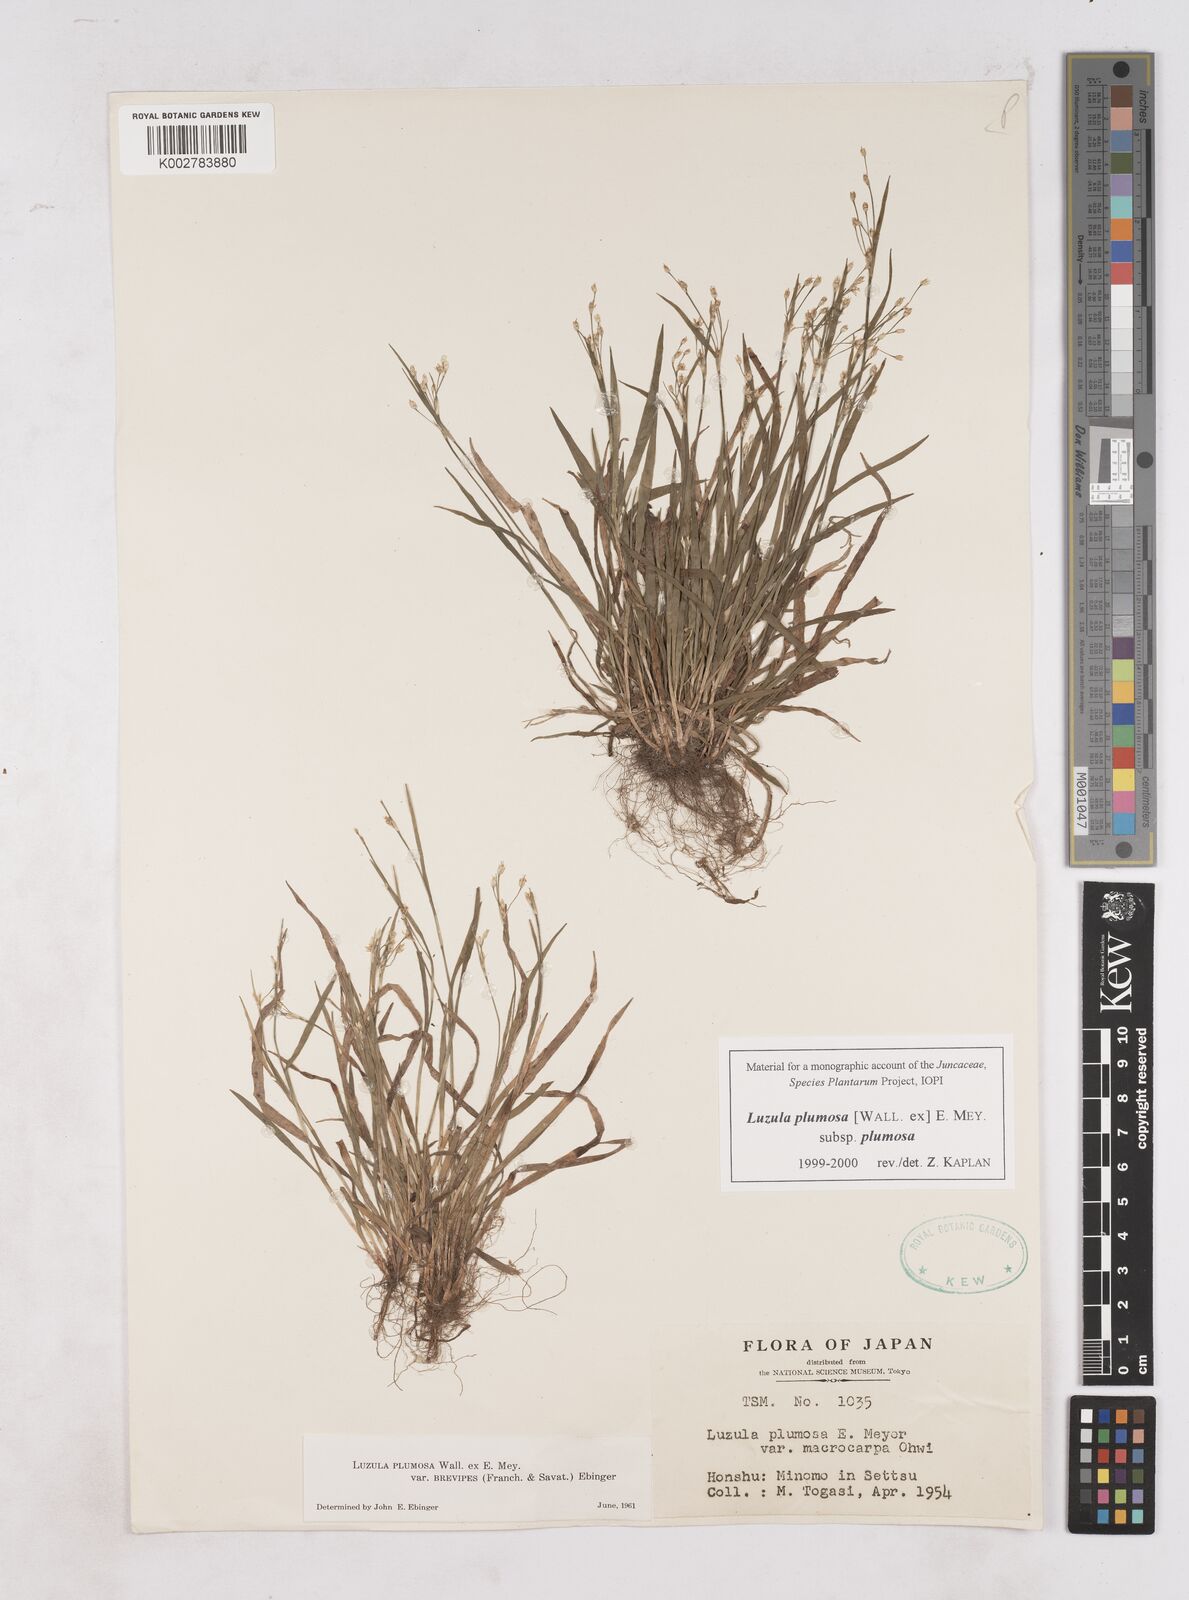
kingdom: Plantae
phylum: Tracheophyta
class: Liliopsida
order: Poales
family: Juncaceae
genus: Luzula
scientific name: Luzula plumosa
